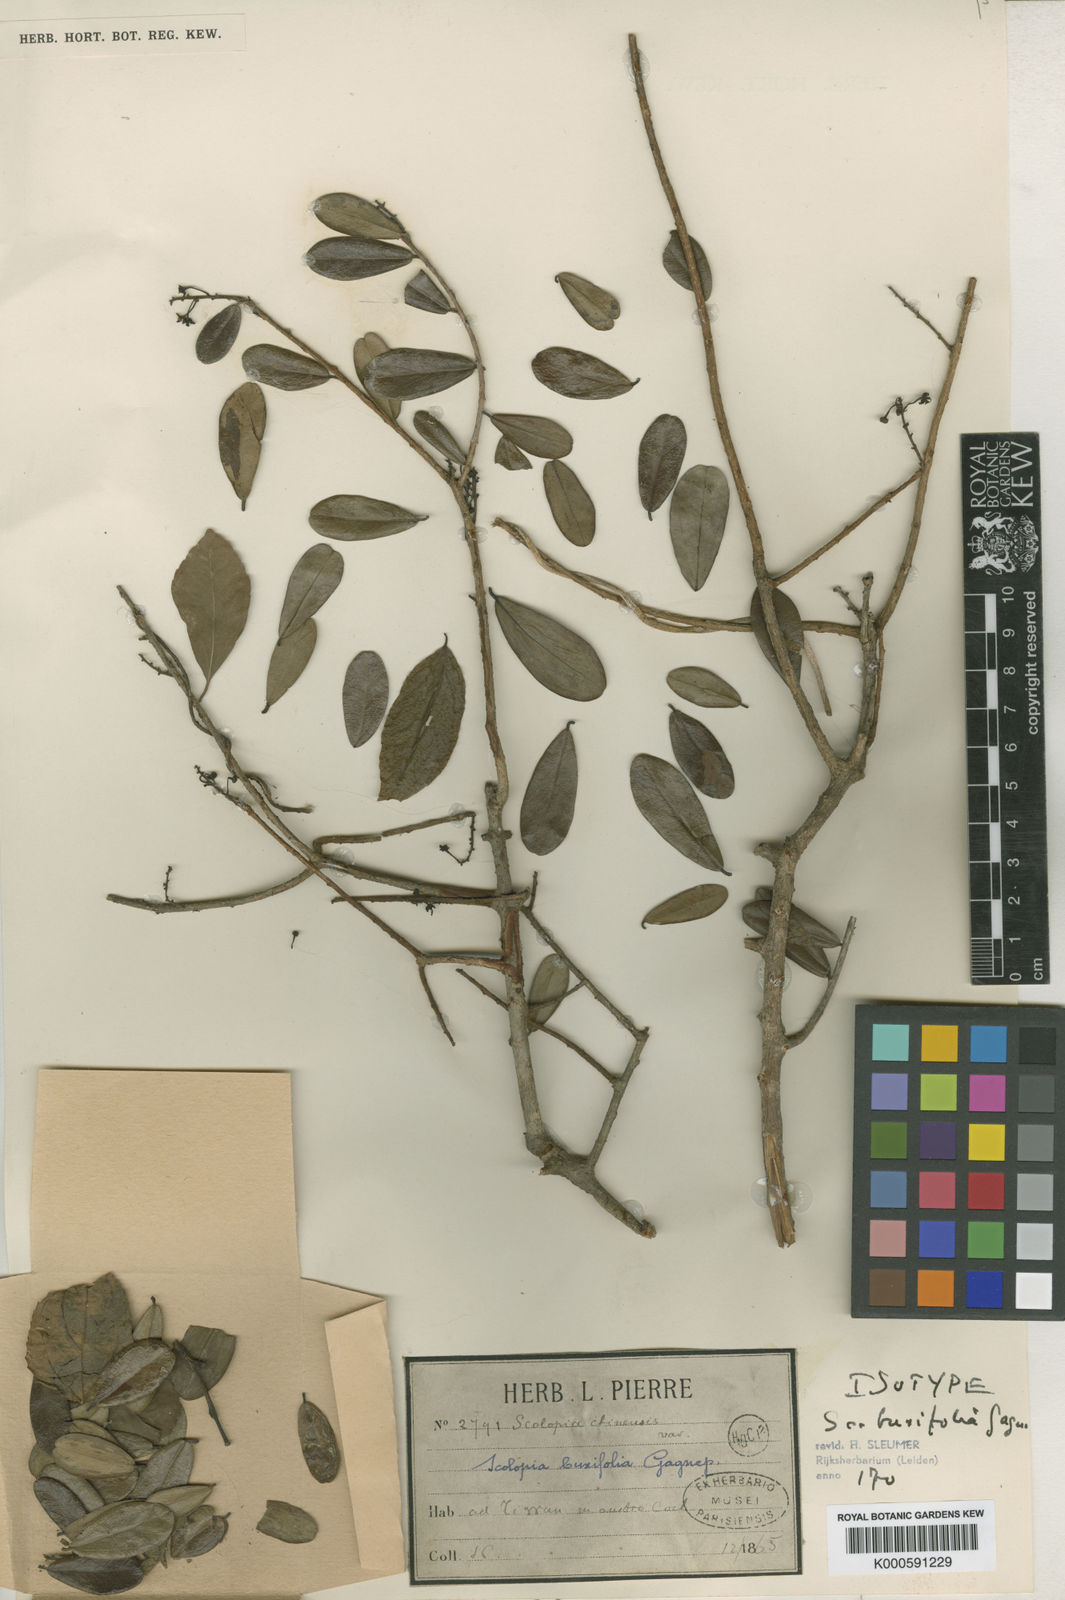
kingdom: Plantae
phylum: Tracheophyta
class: Magnoliopsida
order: Malpighiales
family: Salicaceae
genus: Scolopia
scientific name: Scolopia buxifolia
